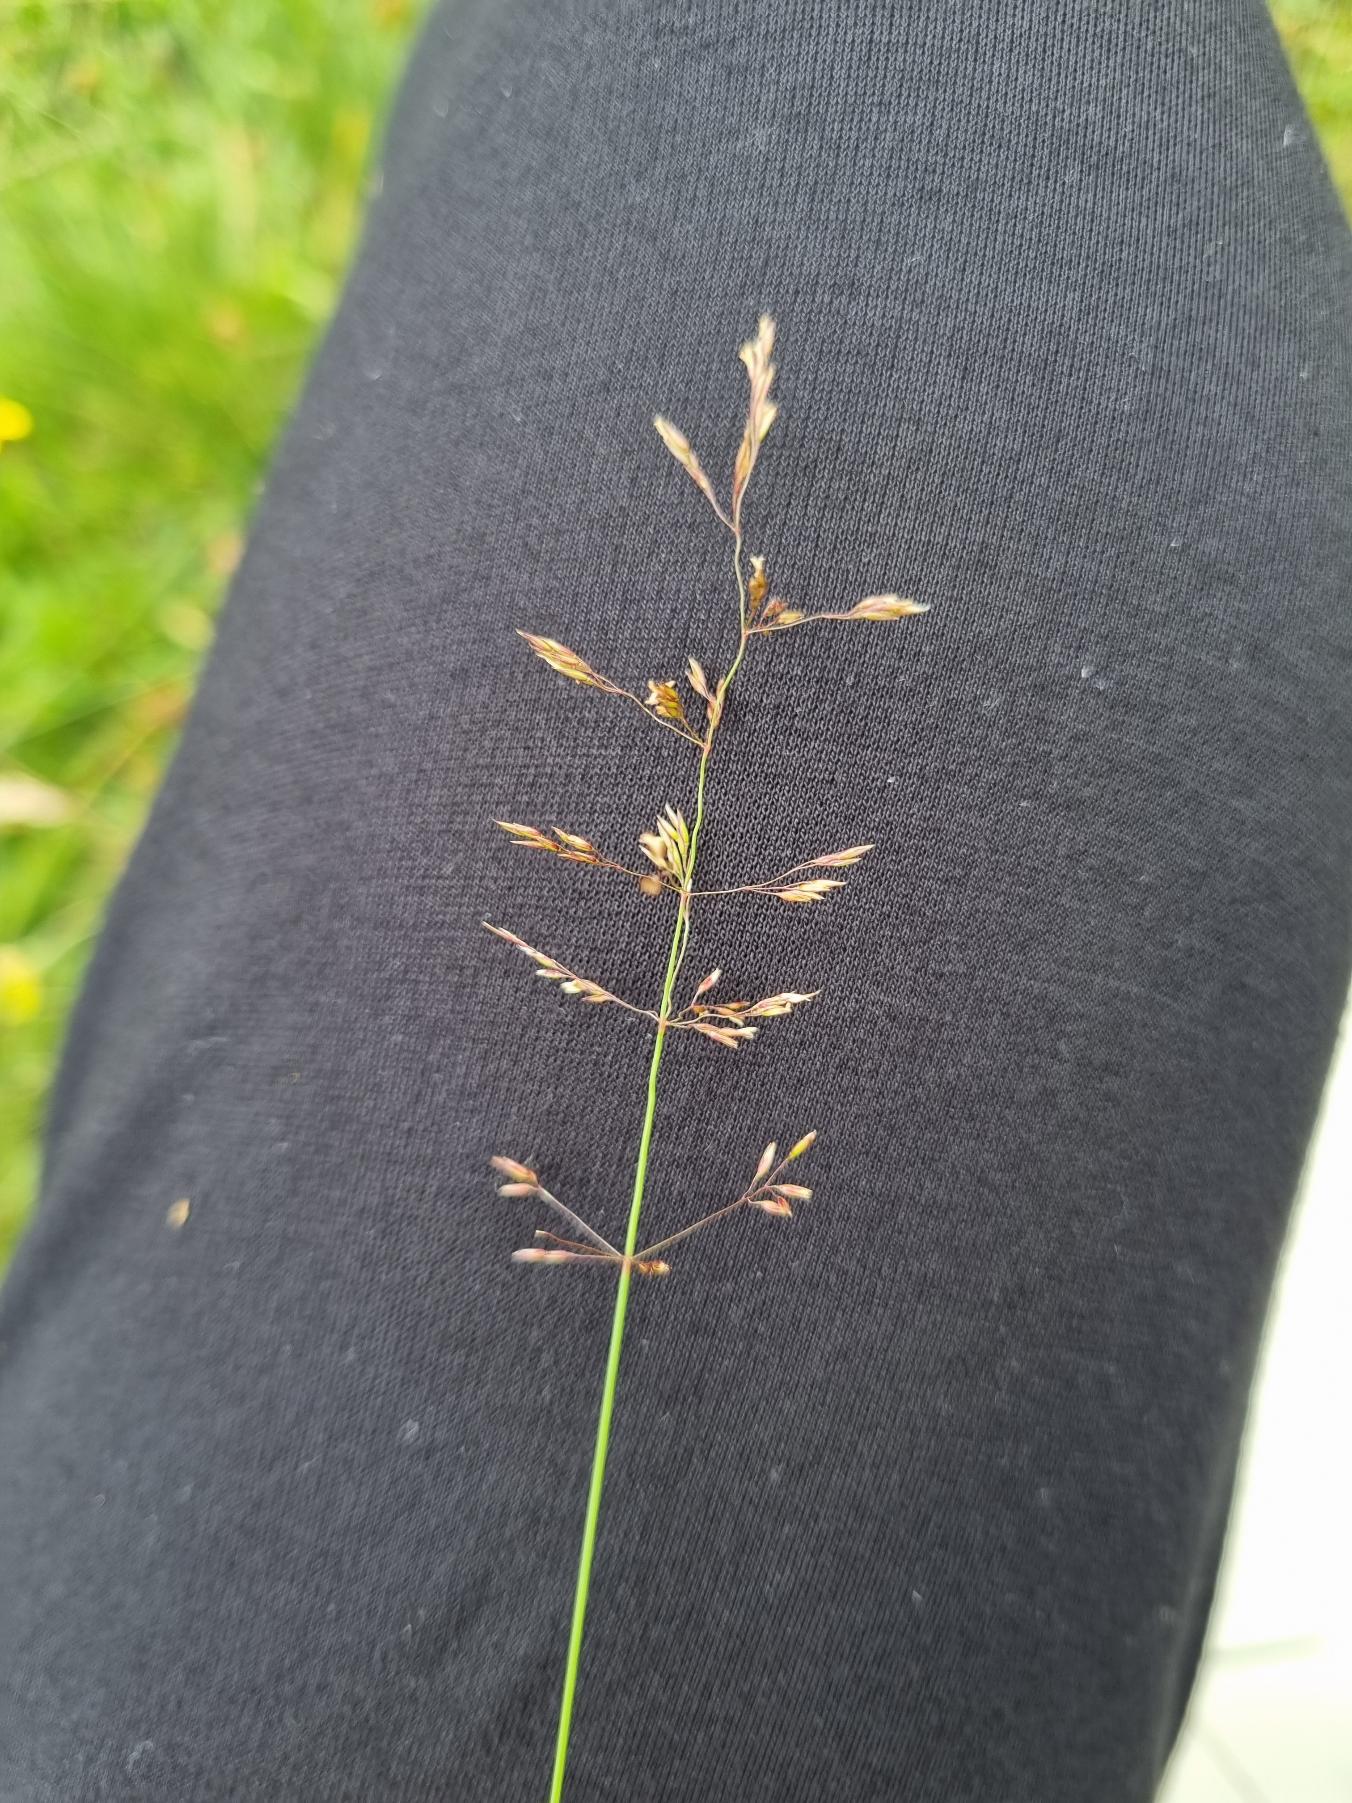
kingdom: Plantae
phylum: Tracheophyta
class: Liliopsida
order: Poales
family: Poaceae
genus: Agrostis
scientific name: Agrostis capillaris
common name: Almindelig hvene
